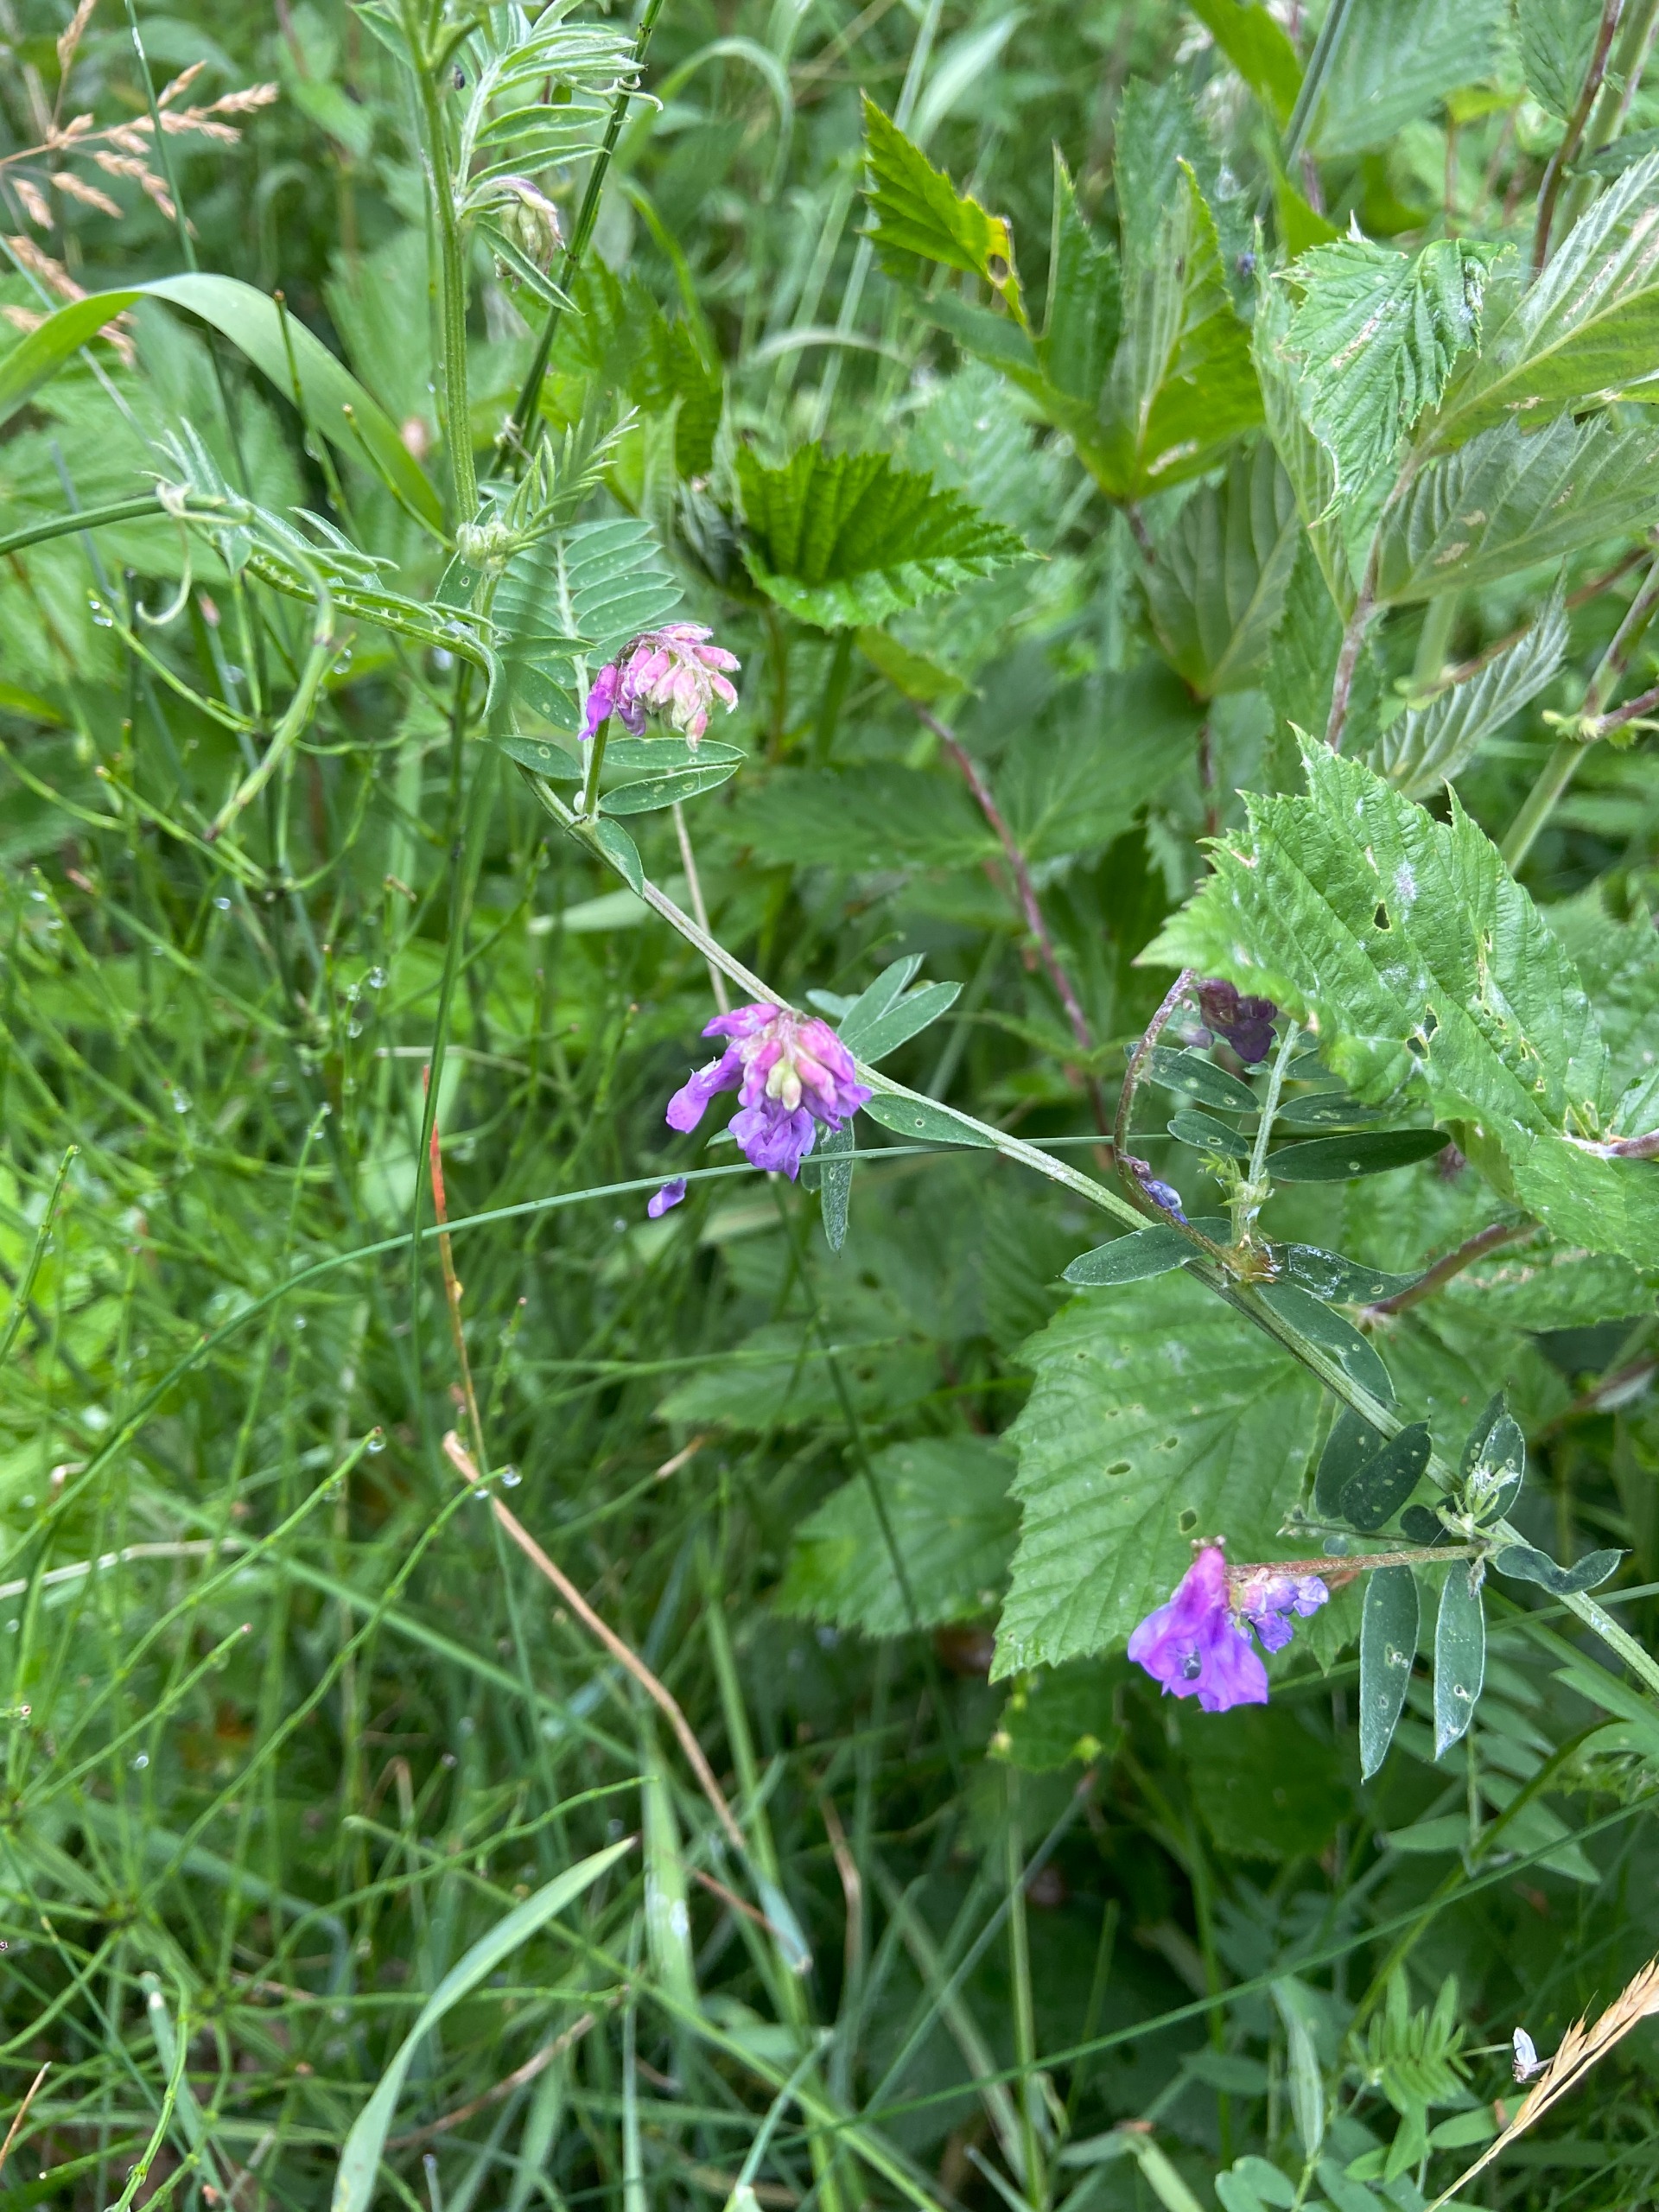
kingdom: Plantae
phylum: Tracheophyta
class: Magnoliopsida
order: Fabales
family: Fabaceae
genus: Vicia
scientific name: Vicia cracca
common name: Muse-vikke
